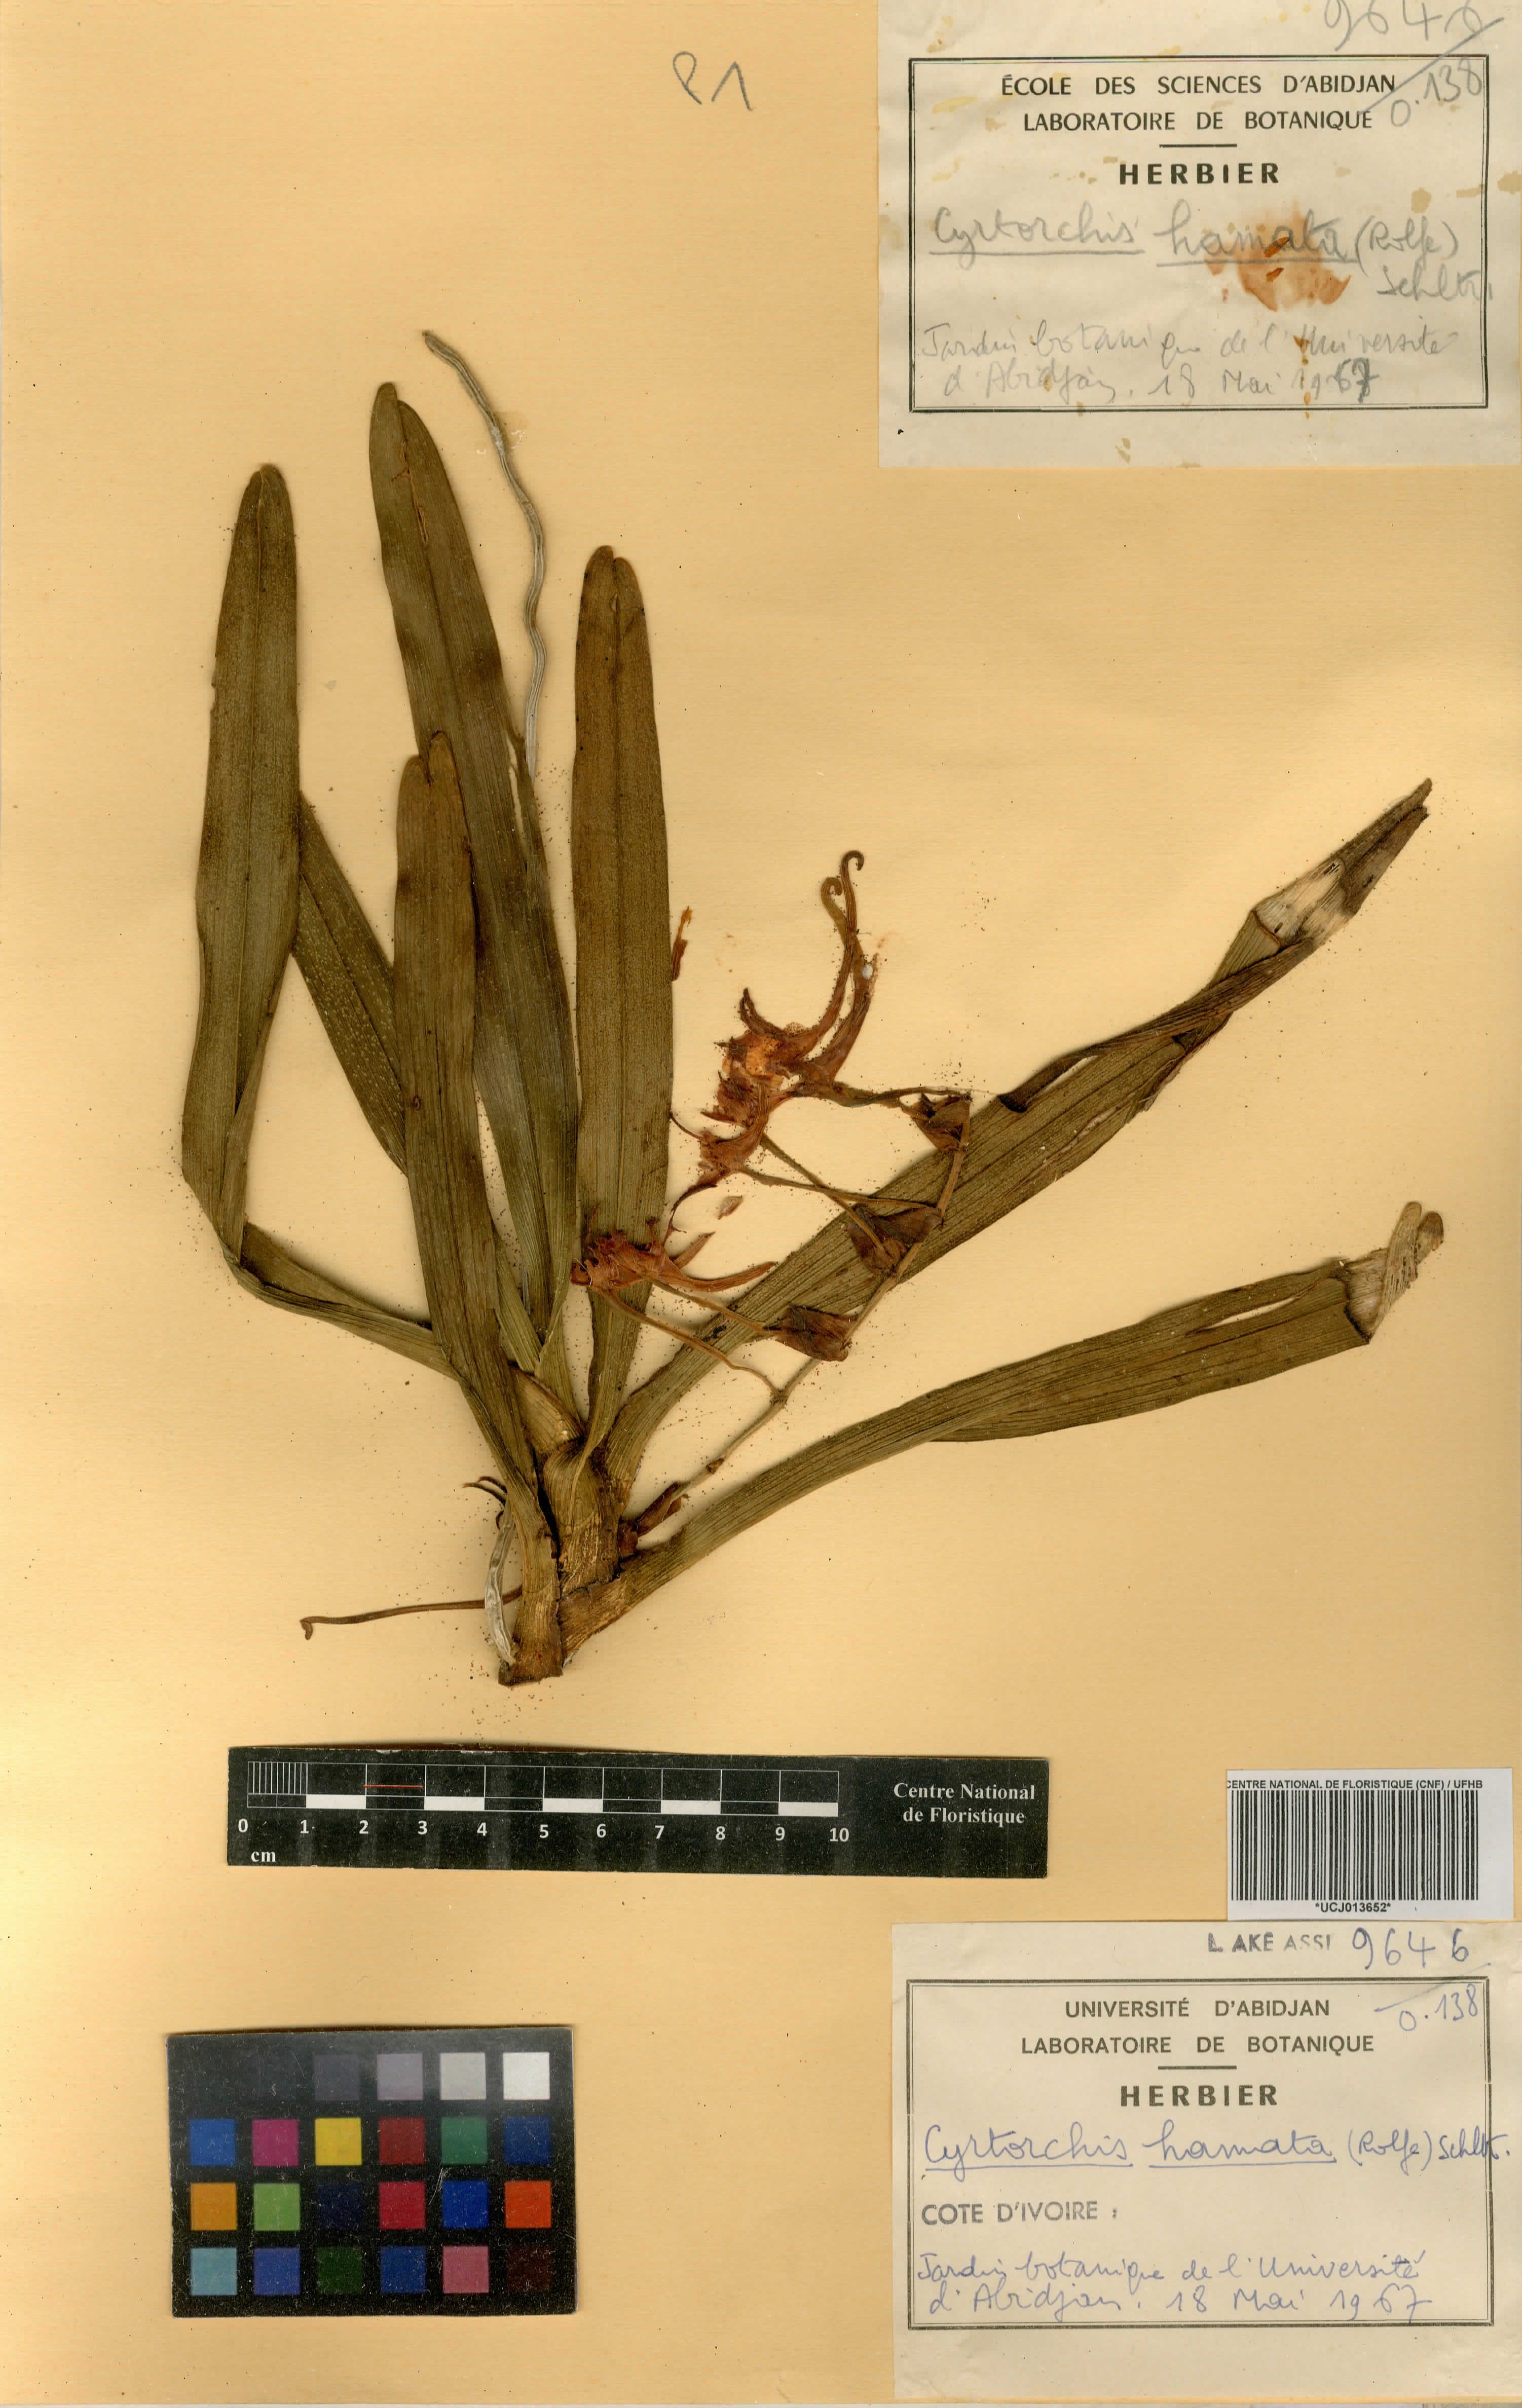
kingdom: Plantae
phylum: Tracheophyta
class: Liliopsida
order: Asparagales
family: Orchidaceae
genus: Cyrtorchis
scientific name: Cyrtorchis hamata
